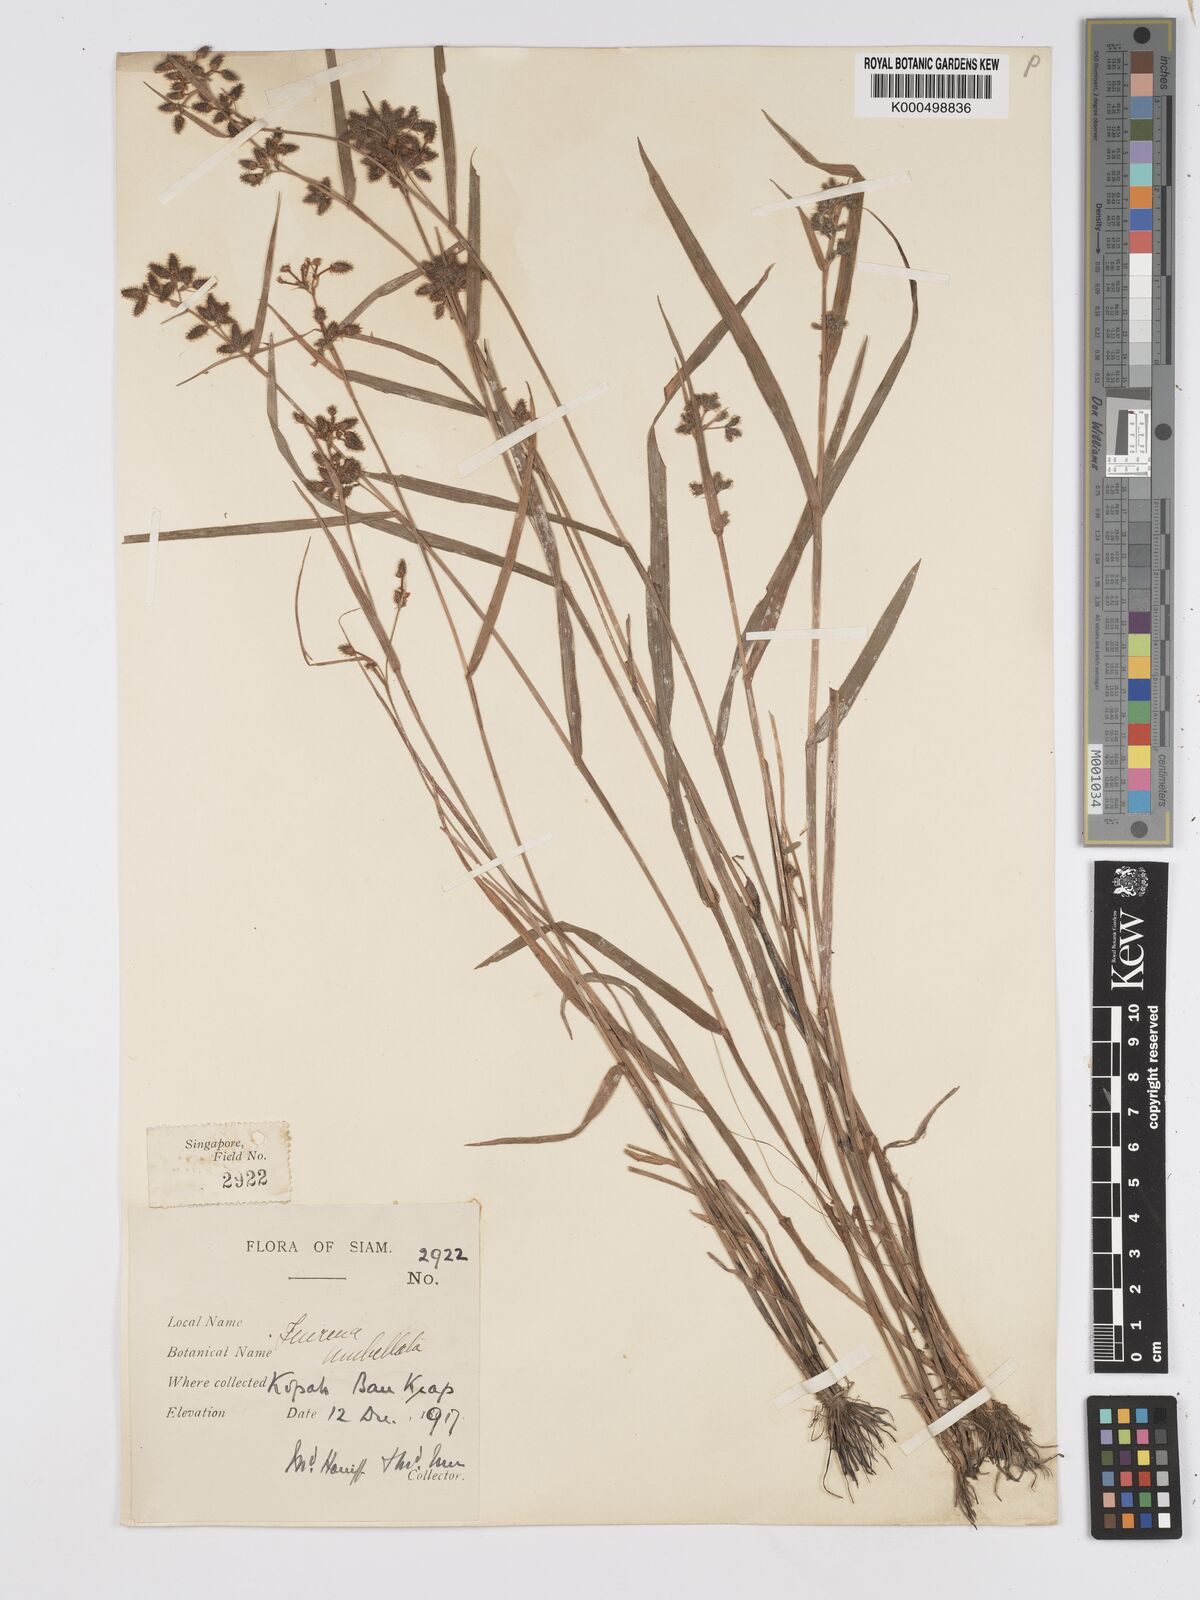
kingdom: Plantae
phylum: Tracheophyta
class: Liliopsida
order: Poales
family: Cyperaceae
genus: Fuirena
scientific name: Fuirena ciliaris
